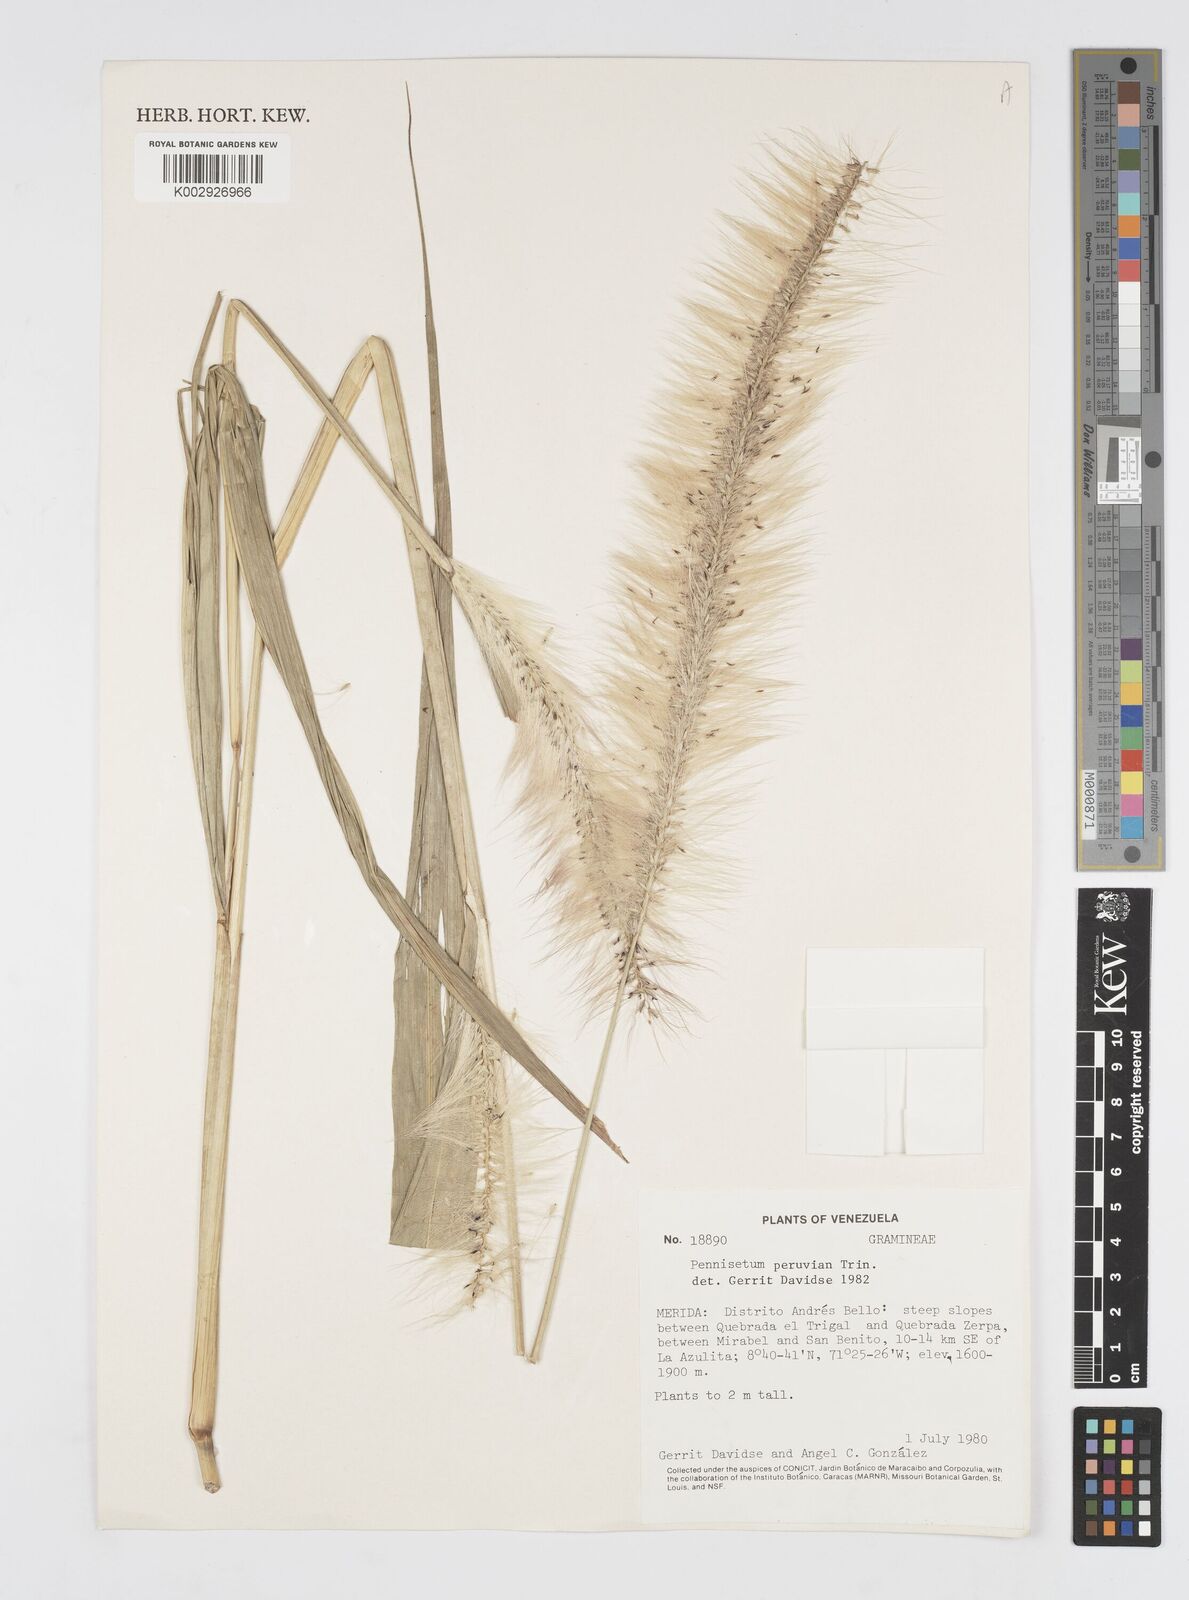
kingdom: Plantae
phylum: Tracheophyta
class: Liliopsida
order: Poales
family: Poaceae
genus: Cenchrus
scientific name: Cenchrus peruvianus
